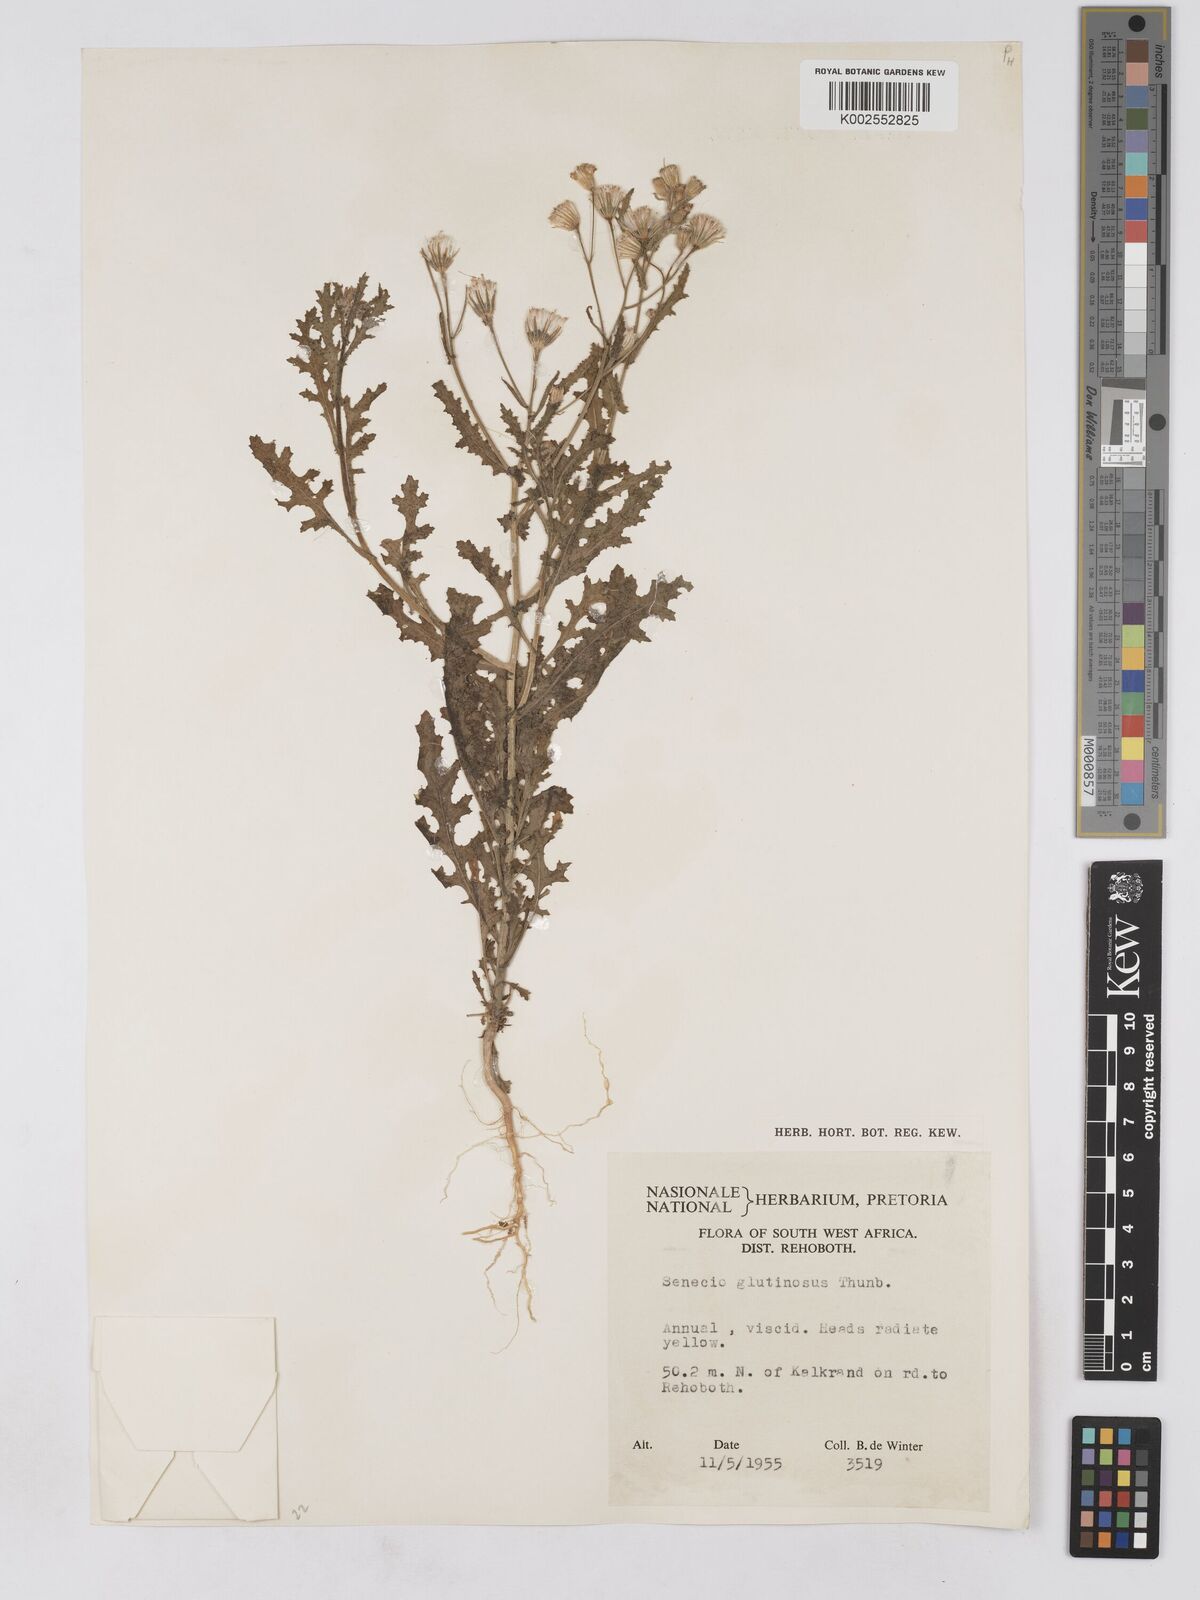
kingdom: Plantae
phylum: Tracheophyta
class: Magnoliopsida
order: Asterales
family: Asteraceae
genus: Senecio
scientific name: Senecio consanguineus
